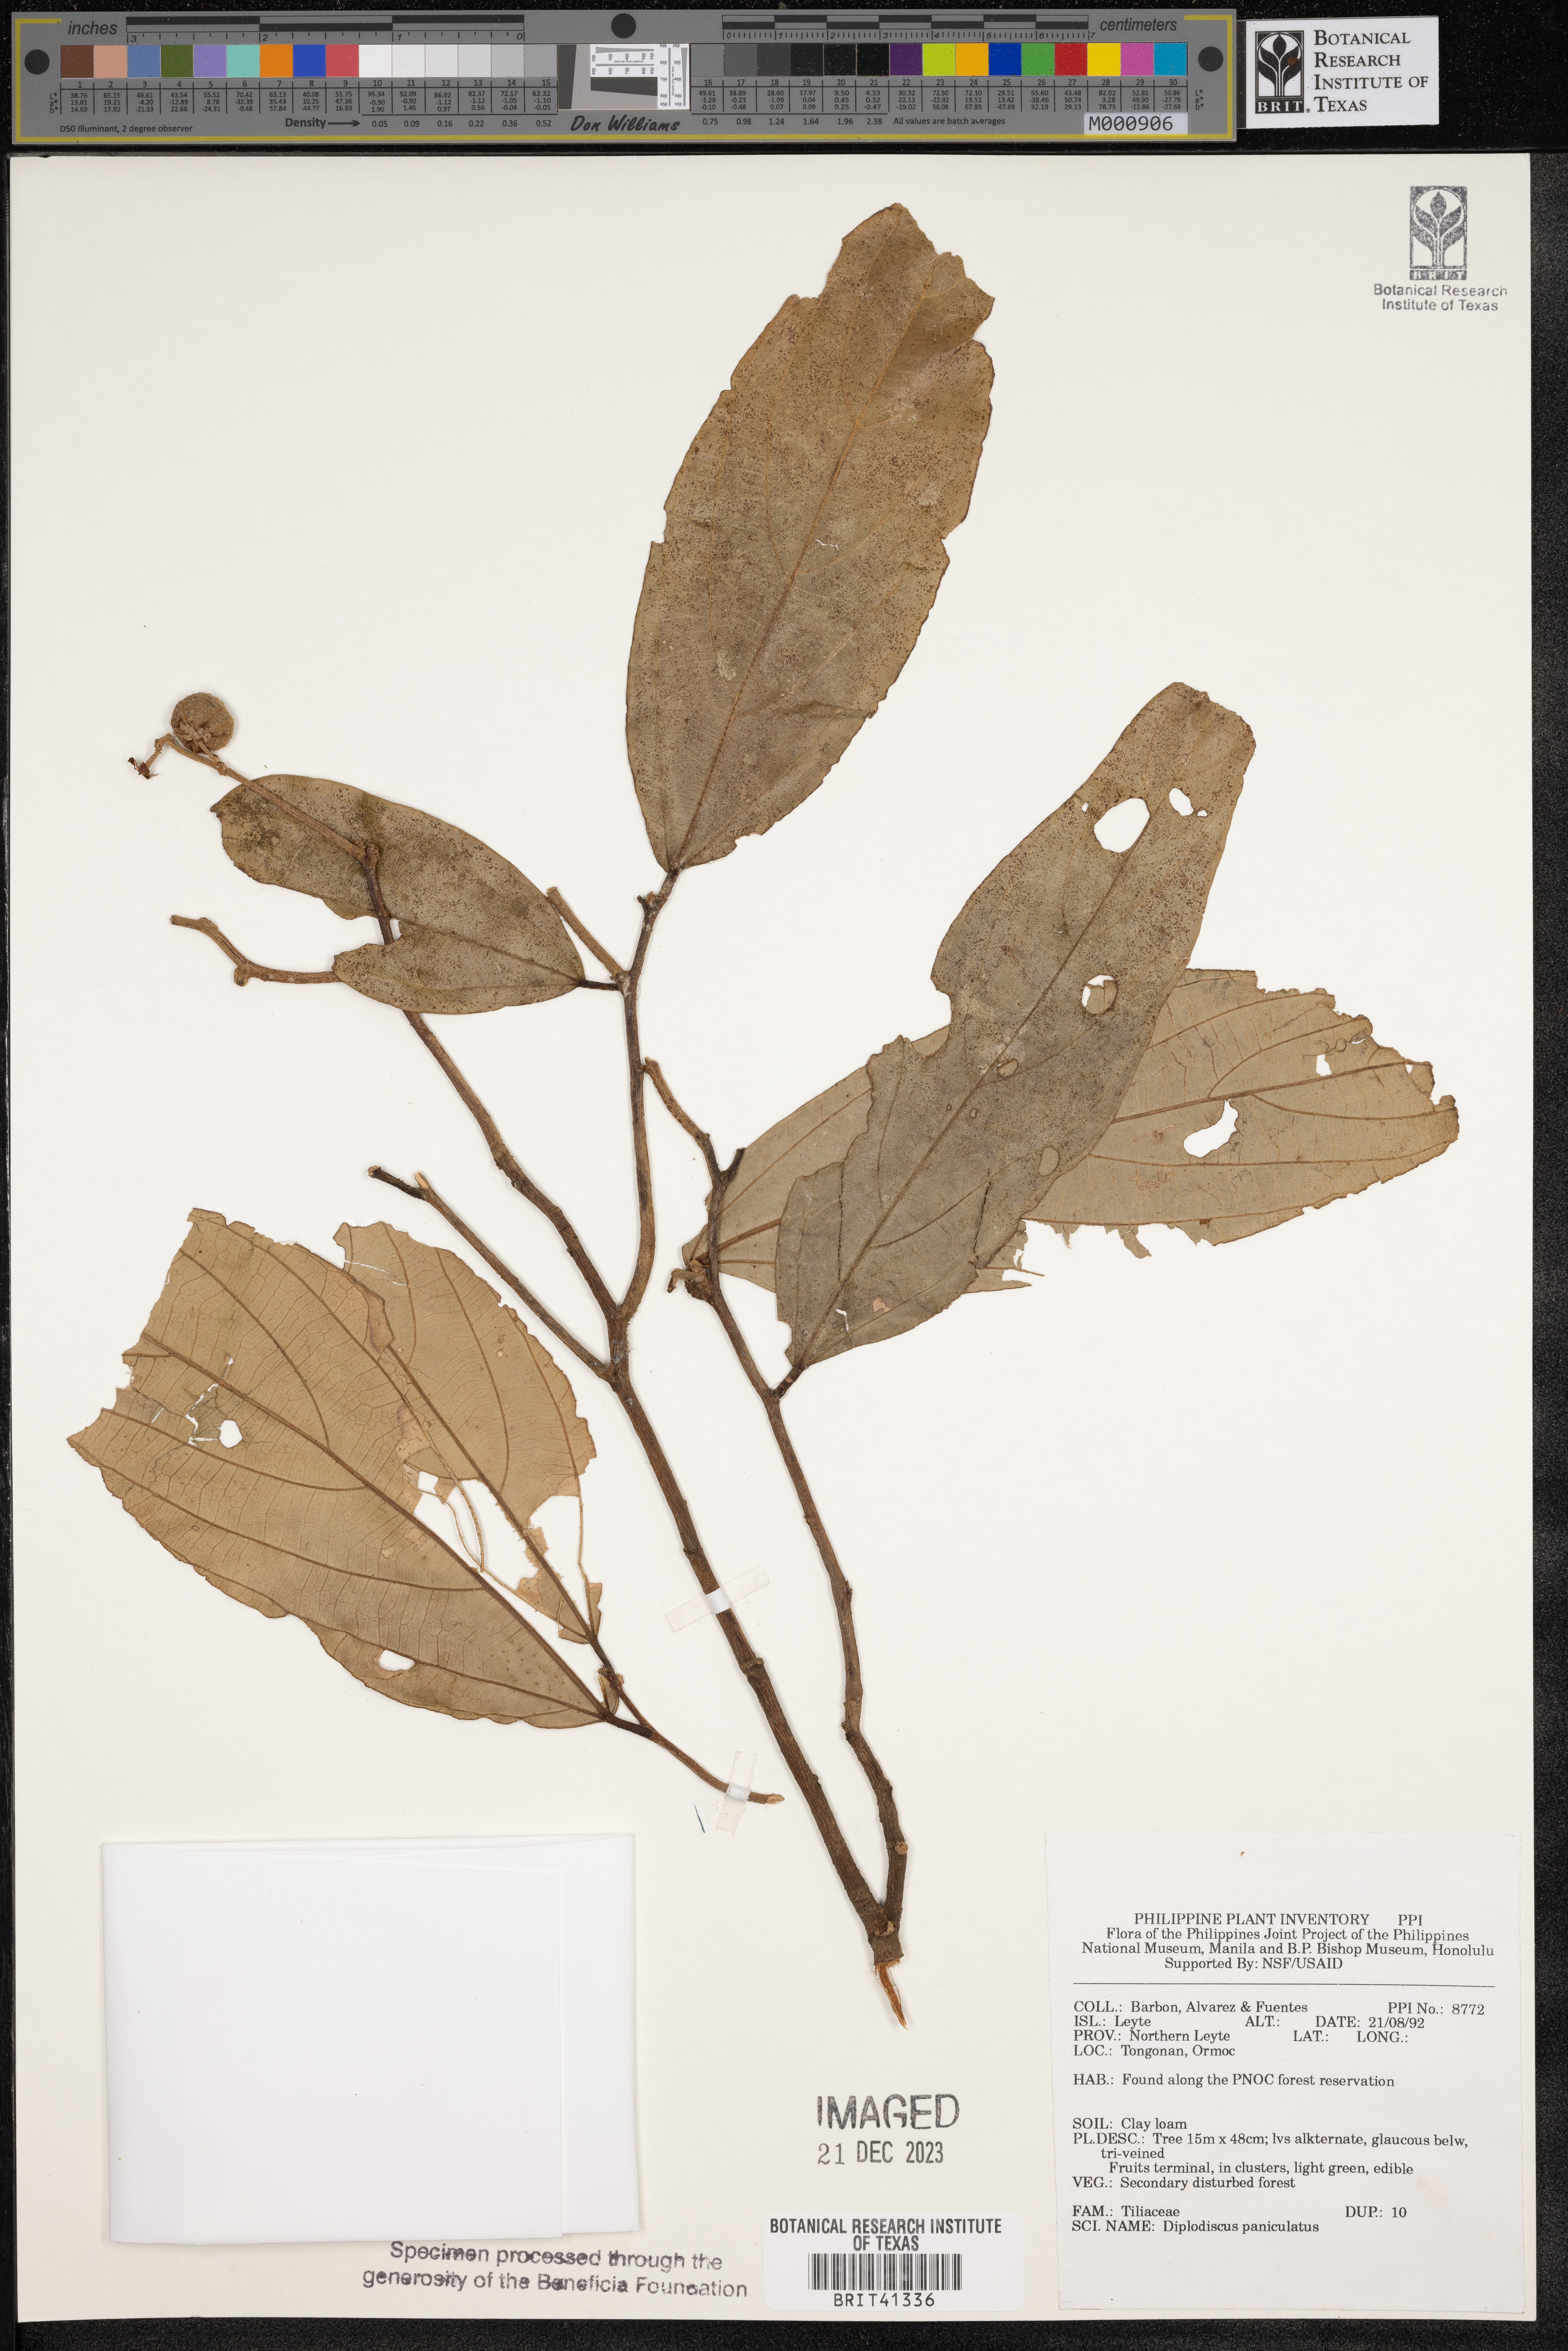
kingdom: Plantae
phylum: Tracheophyta
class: Magnoliopsida
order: Malvales
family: Malvaceae
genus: Diplodiscus
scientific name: Diplodiscus paniculatus
